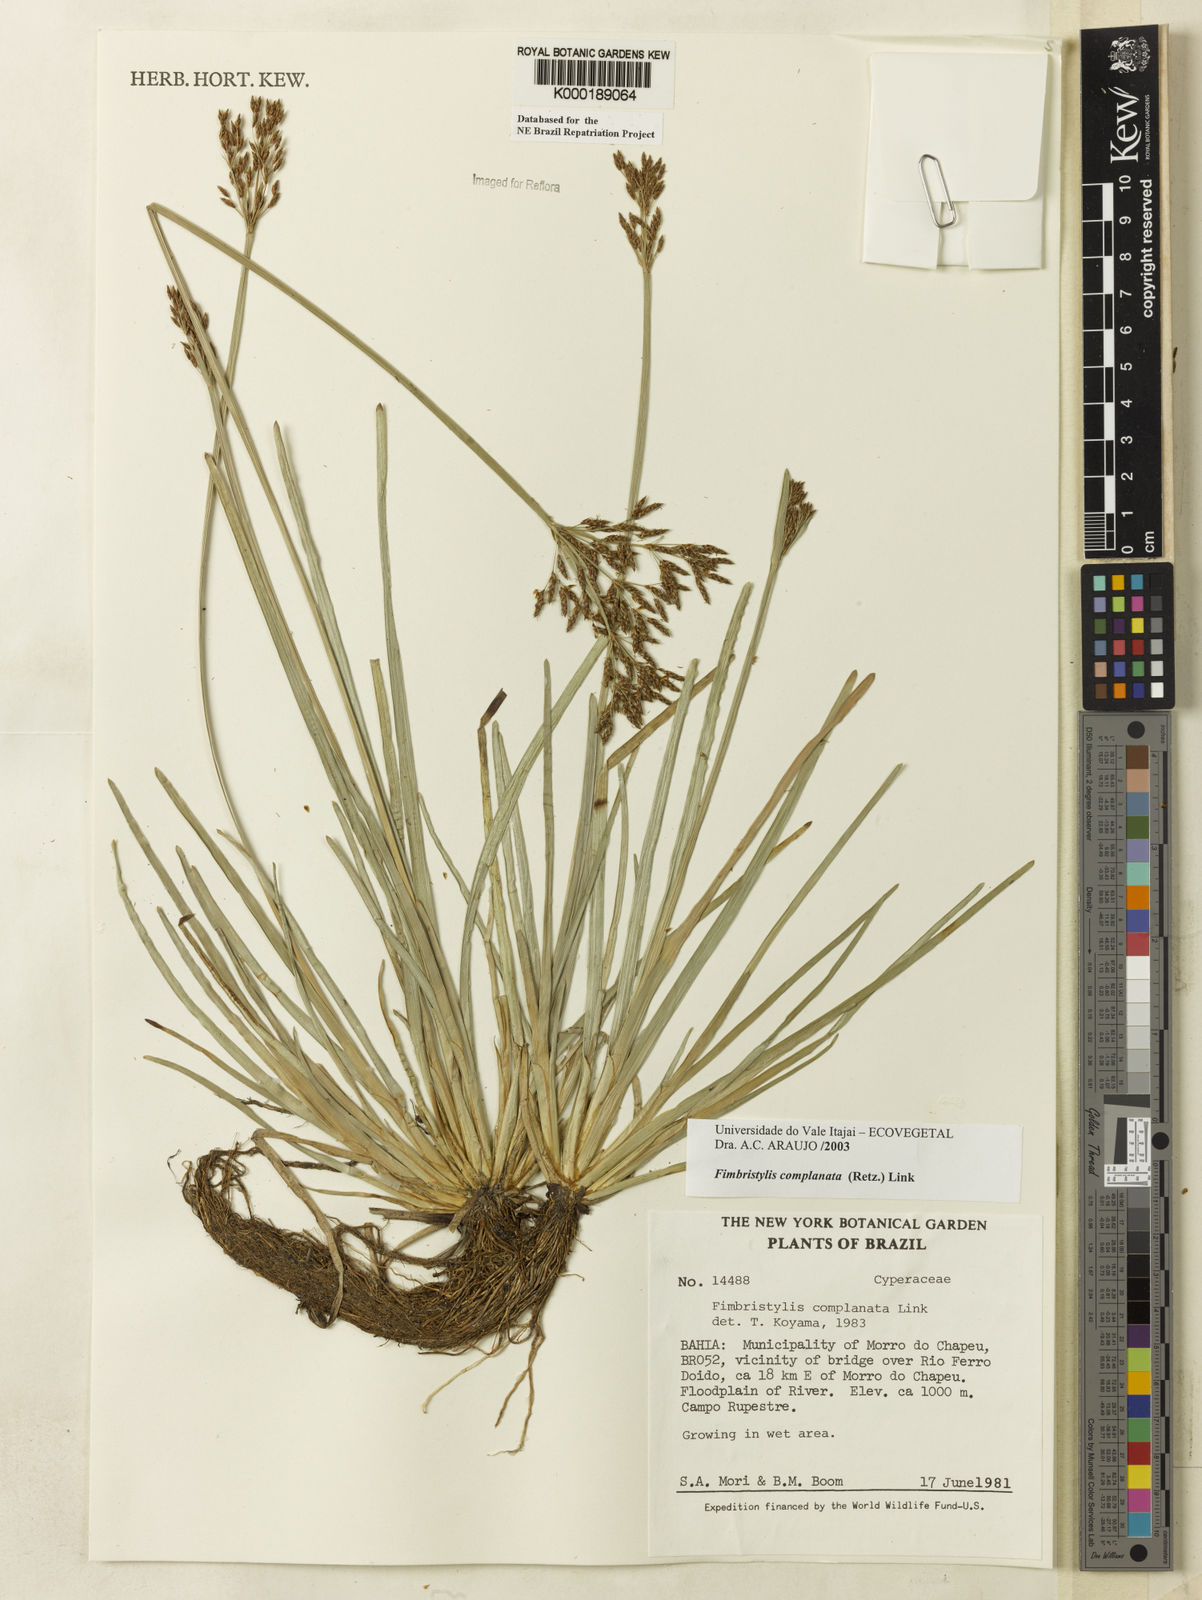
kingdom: Plantae
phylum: Tracheophyta
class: Liliopsida
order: Poales
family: Cyperaceae
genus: Fimbristylis
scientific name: Fimbristylis complanata
